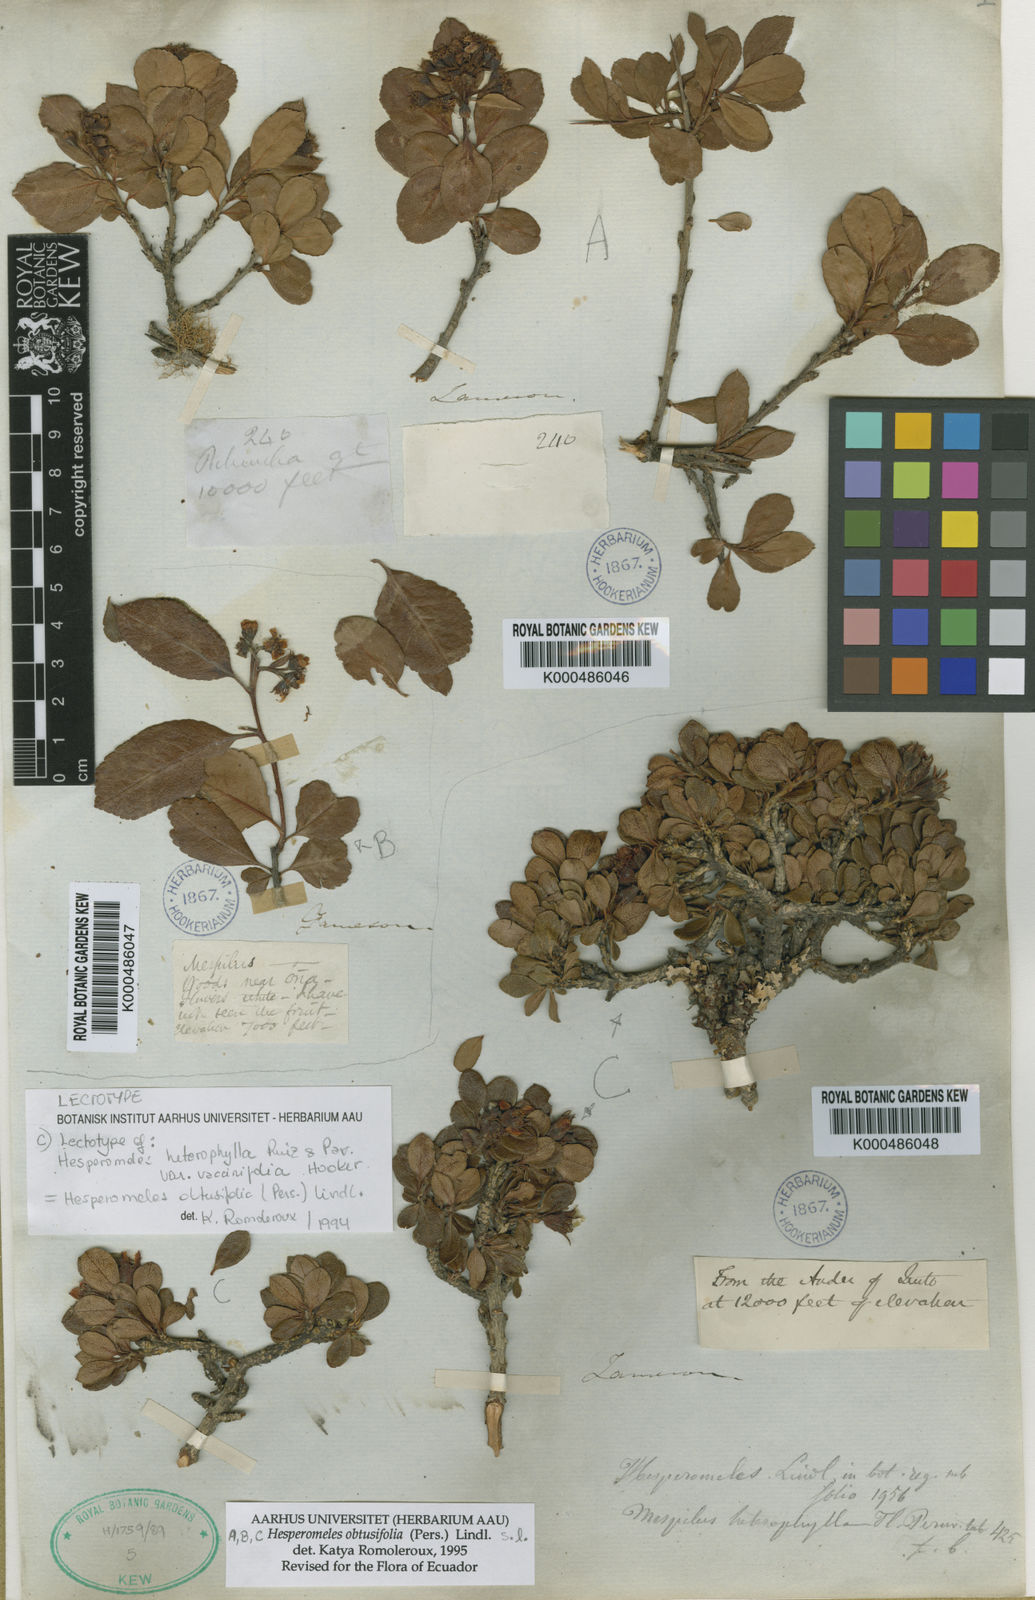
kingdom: Plantae
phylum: Tracheophyta
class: Magnoliopsida
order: Rosales
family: Rosaceae
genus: Hesperomeles
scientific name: Hesperomeles obtusifolia
